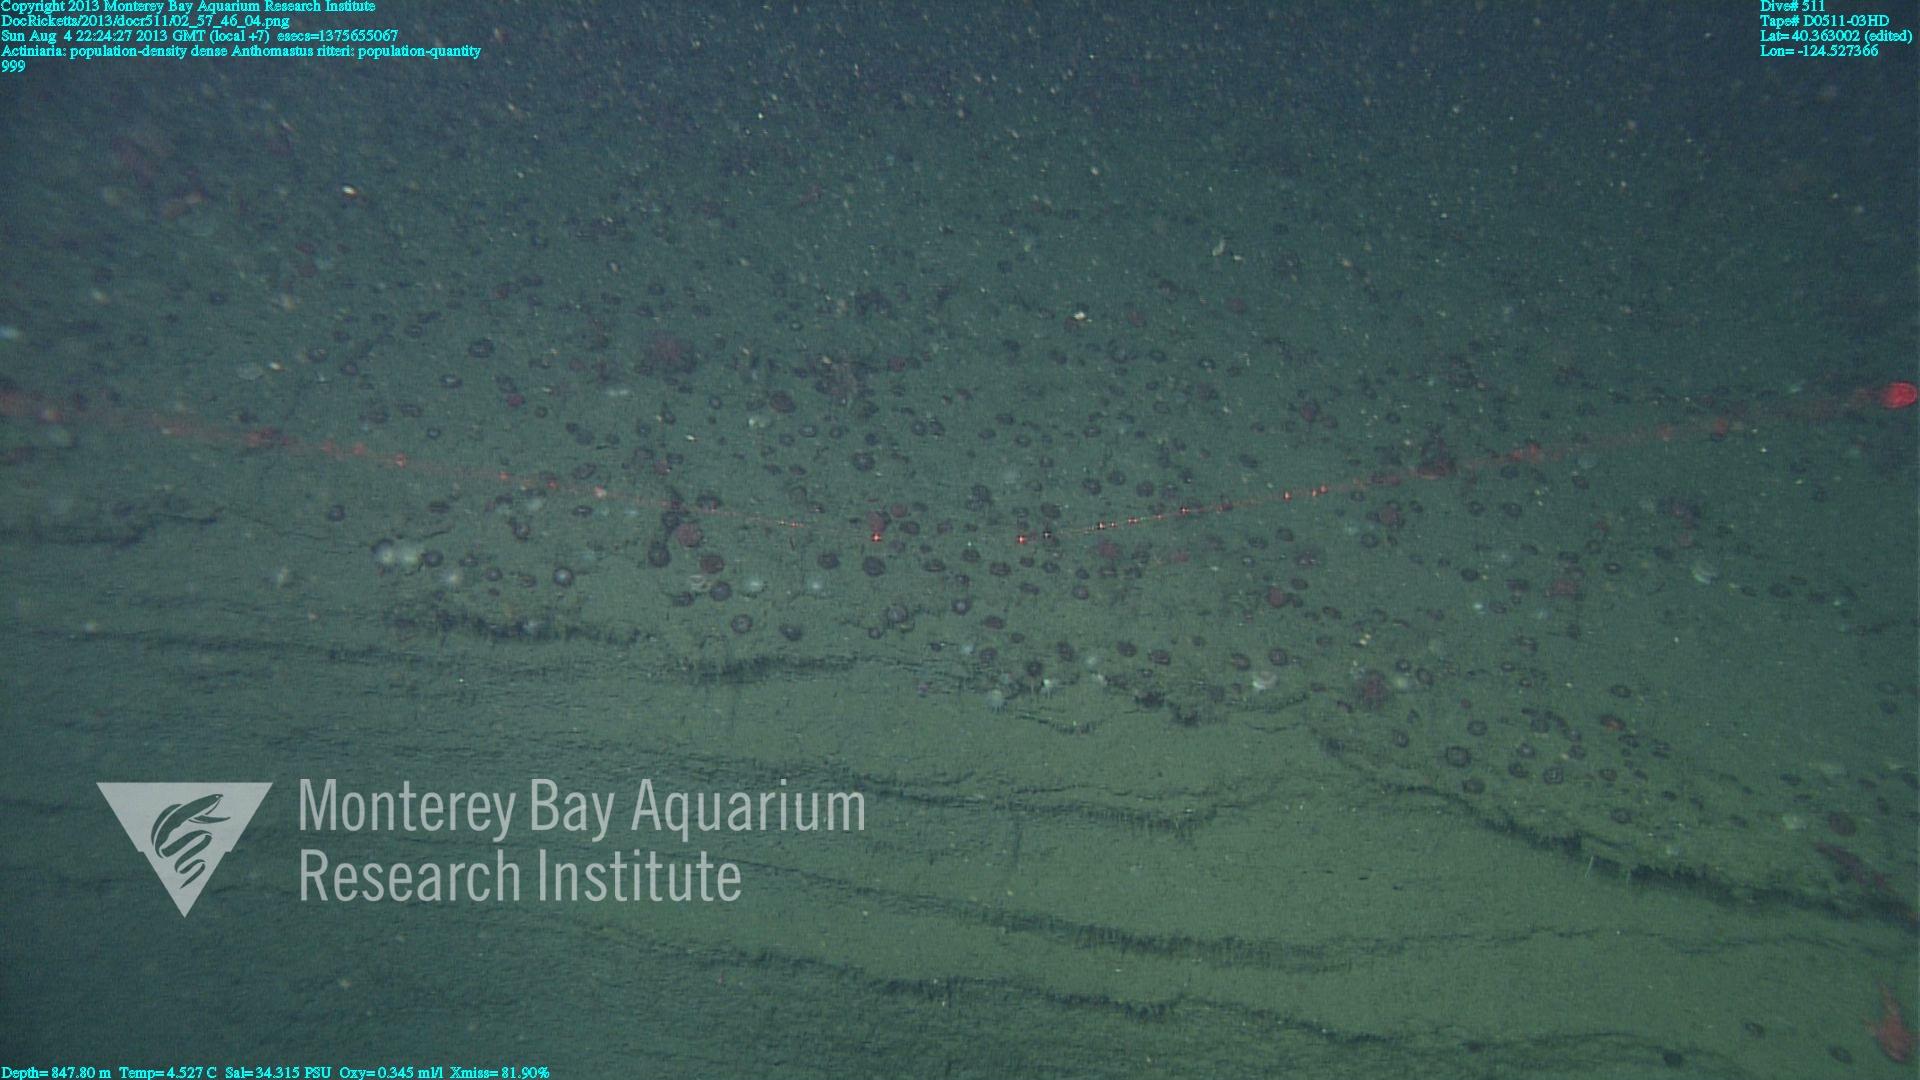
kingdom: Animalia
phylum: Cnidaria
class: Anthozoa
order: Scleralcyonacea
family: Coralliidae
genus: Heteropolypus
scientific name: Heteropolypus ritteri
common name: Ritter's soft coral
